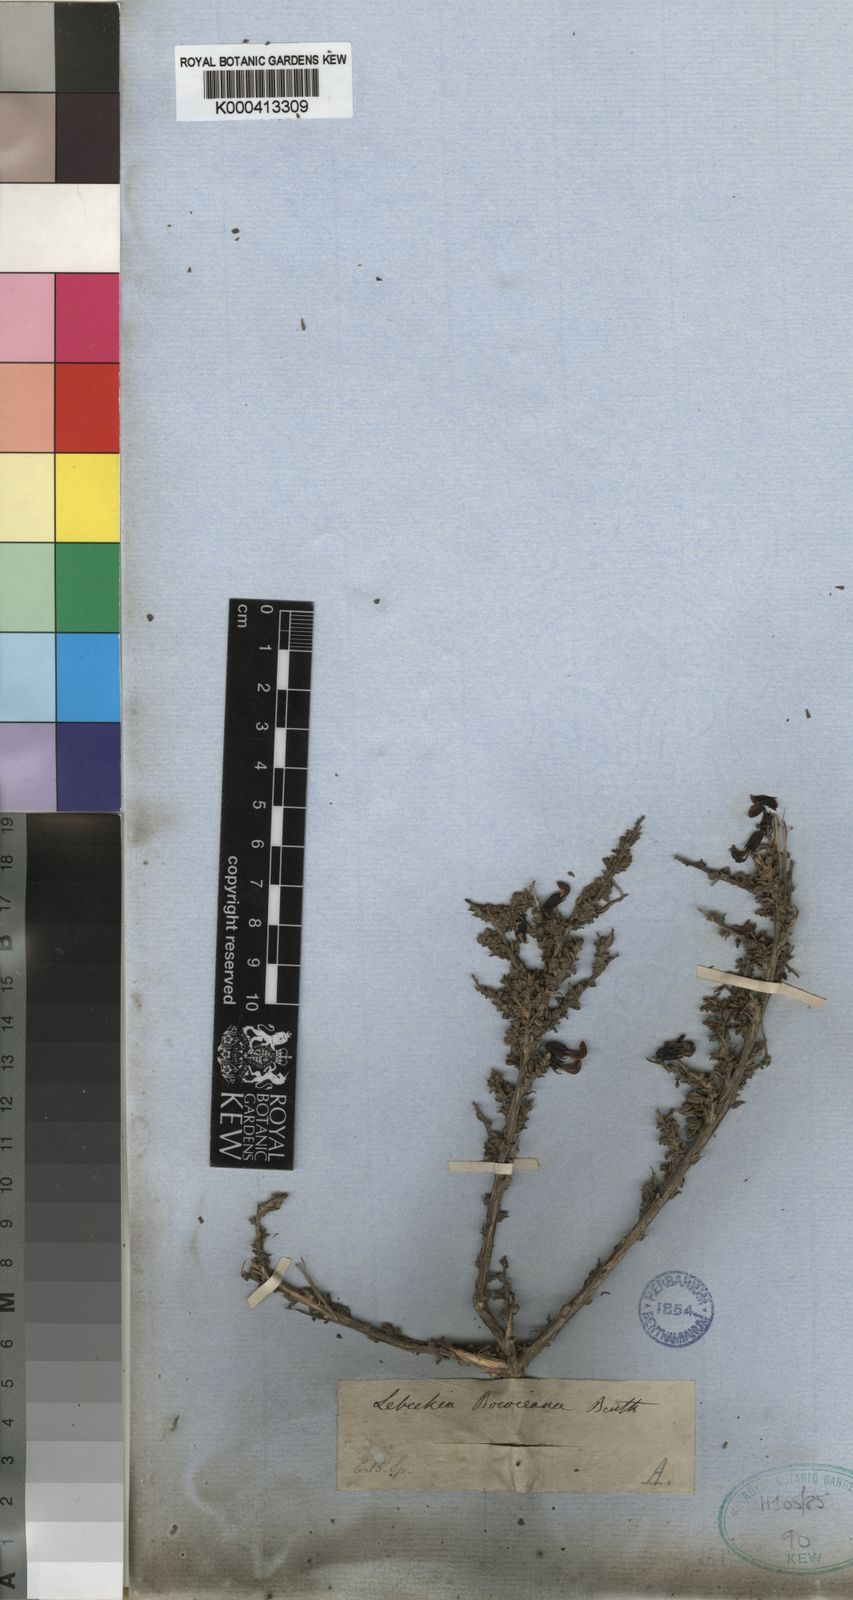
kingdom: Plantae
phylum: Tracheophyta
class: Magnoliopsida
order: Fabales
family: Fabaceae
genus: Wiborgiella
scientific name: Wiborgiella bowieana
